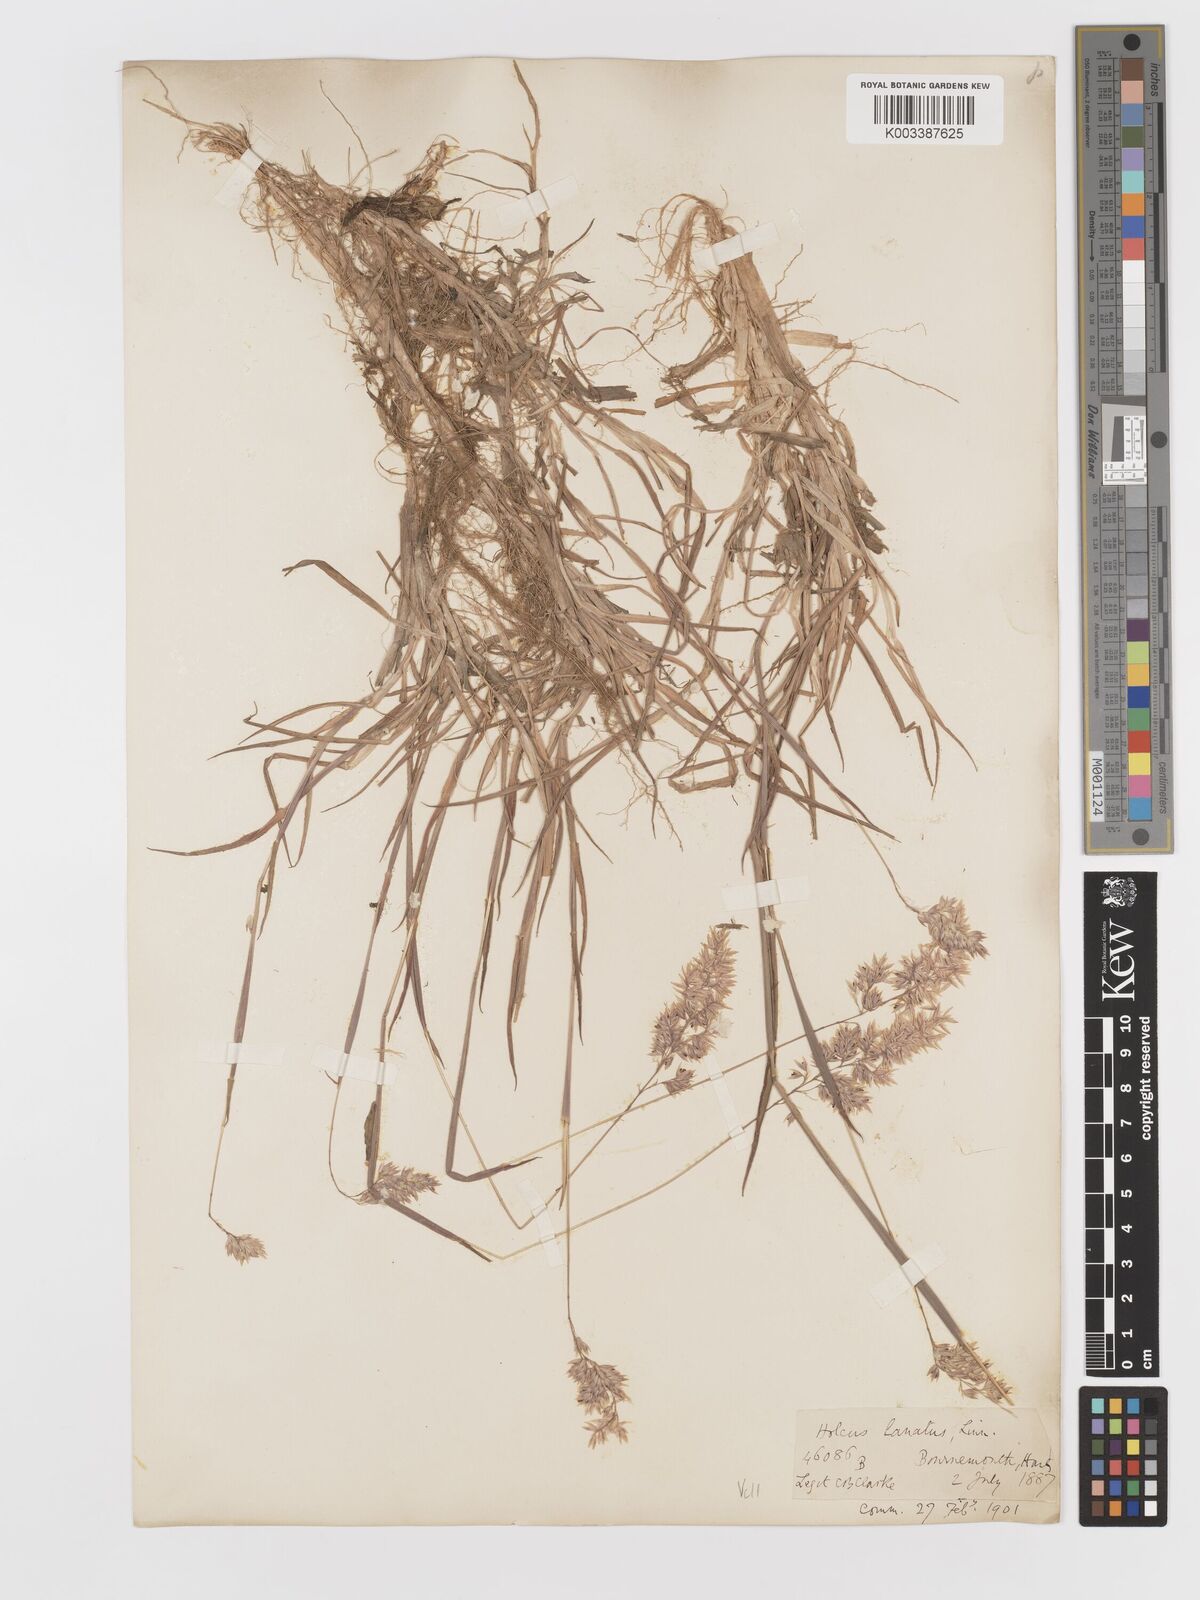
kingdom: Plantae
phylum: Tracheophyta
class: Liliopsida
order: Poales
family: Poaceae
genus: Holcus
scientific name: Holcus lanatus
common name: Yorkshire-fog
